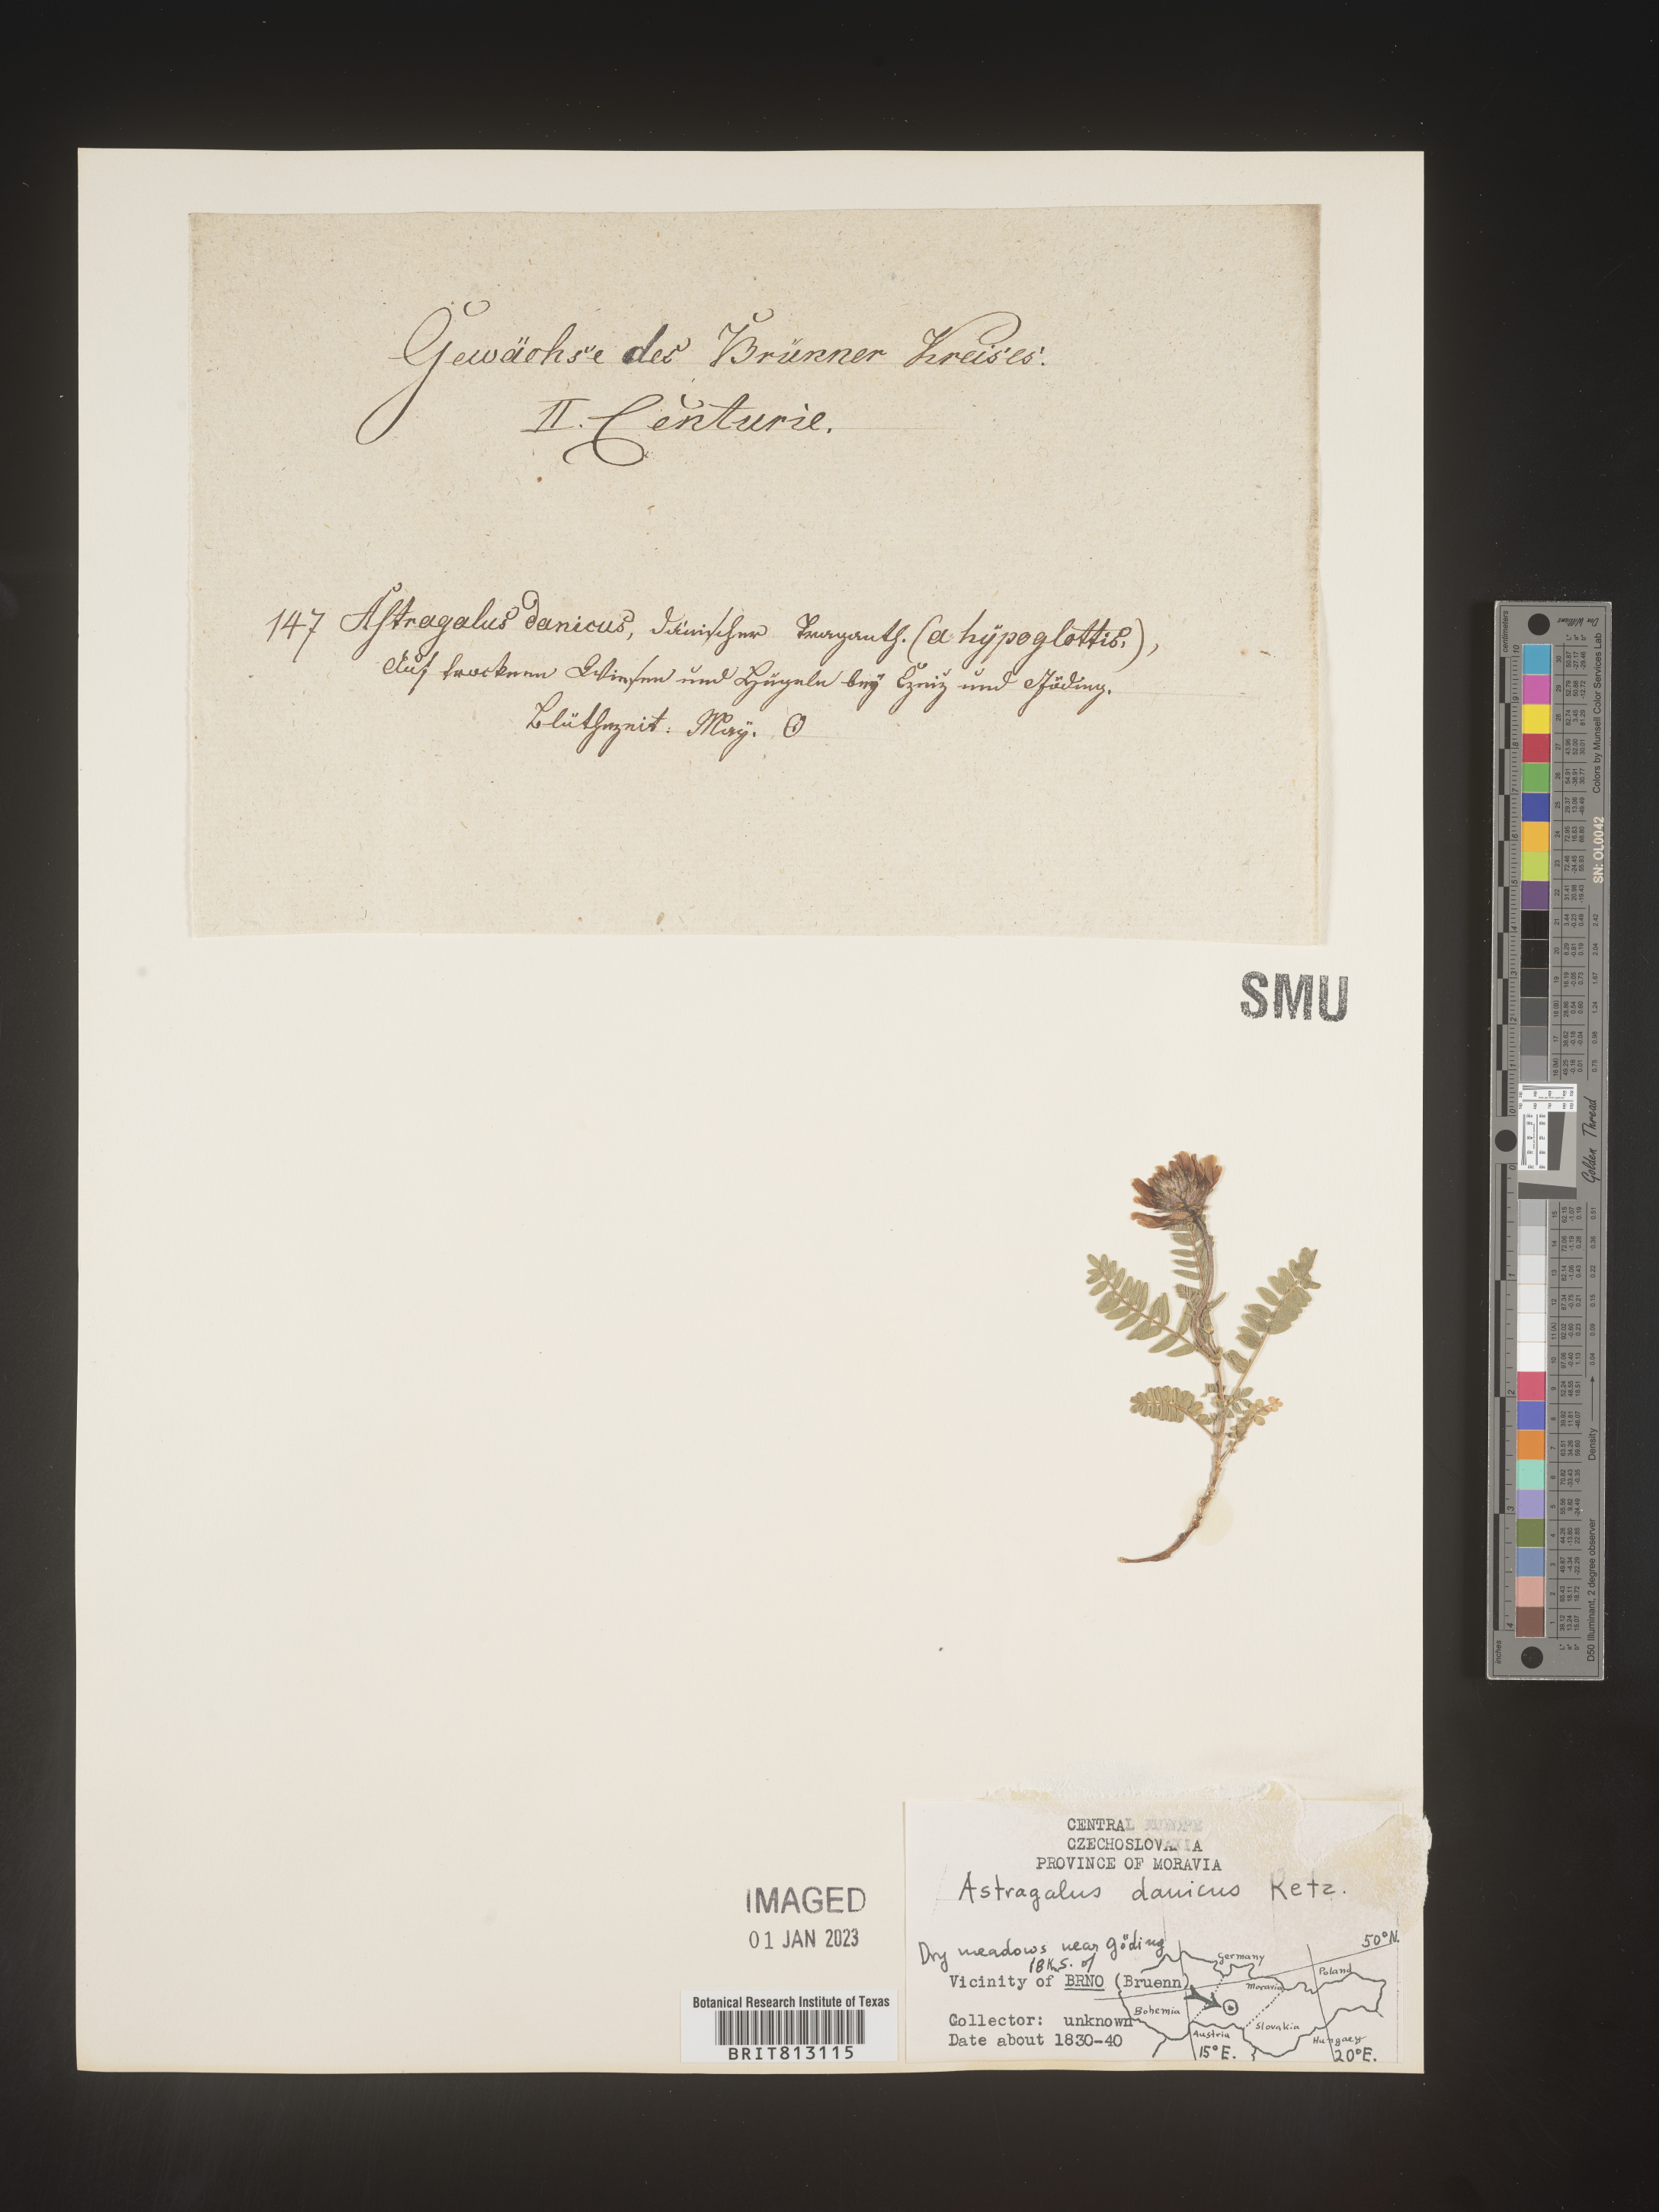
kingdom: Plantae
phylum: Tracheophyta
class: Magnoliopsida
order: Fabales
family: Fabaceae
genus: Astragalus
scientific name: Astragalus
